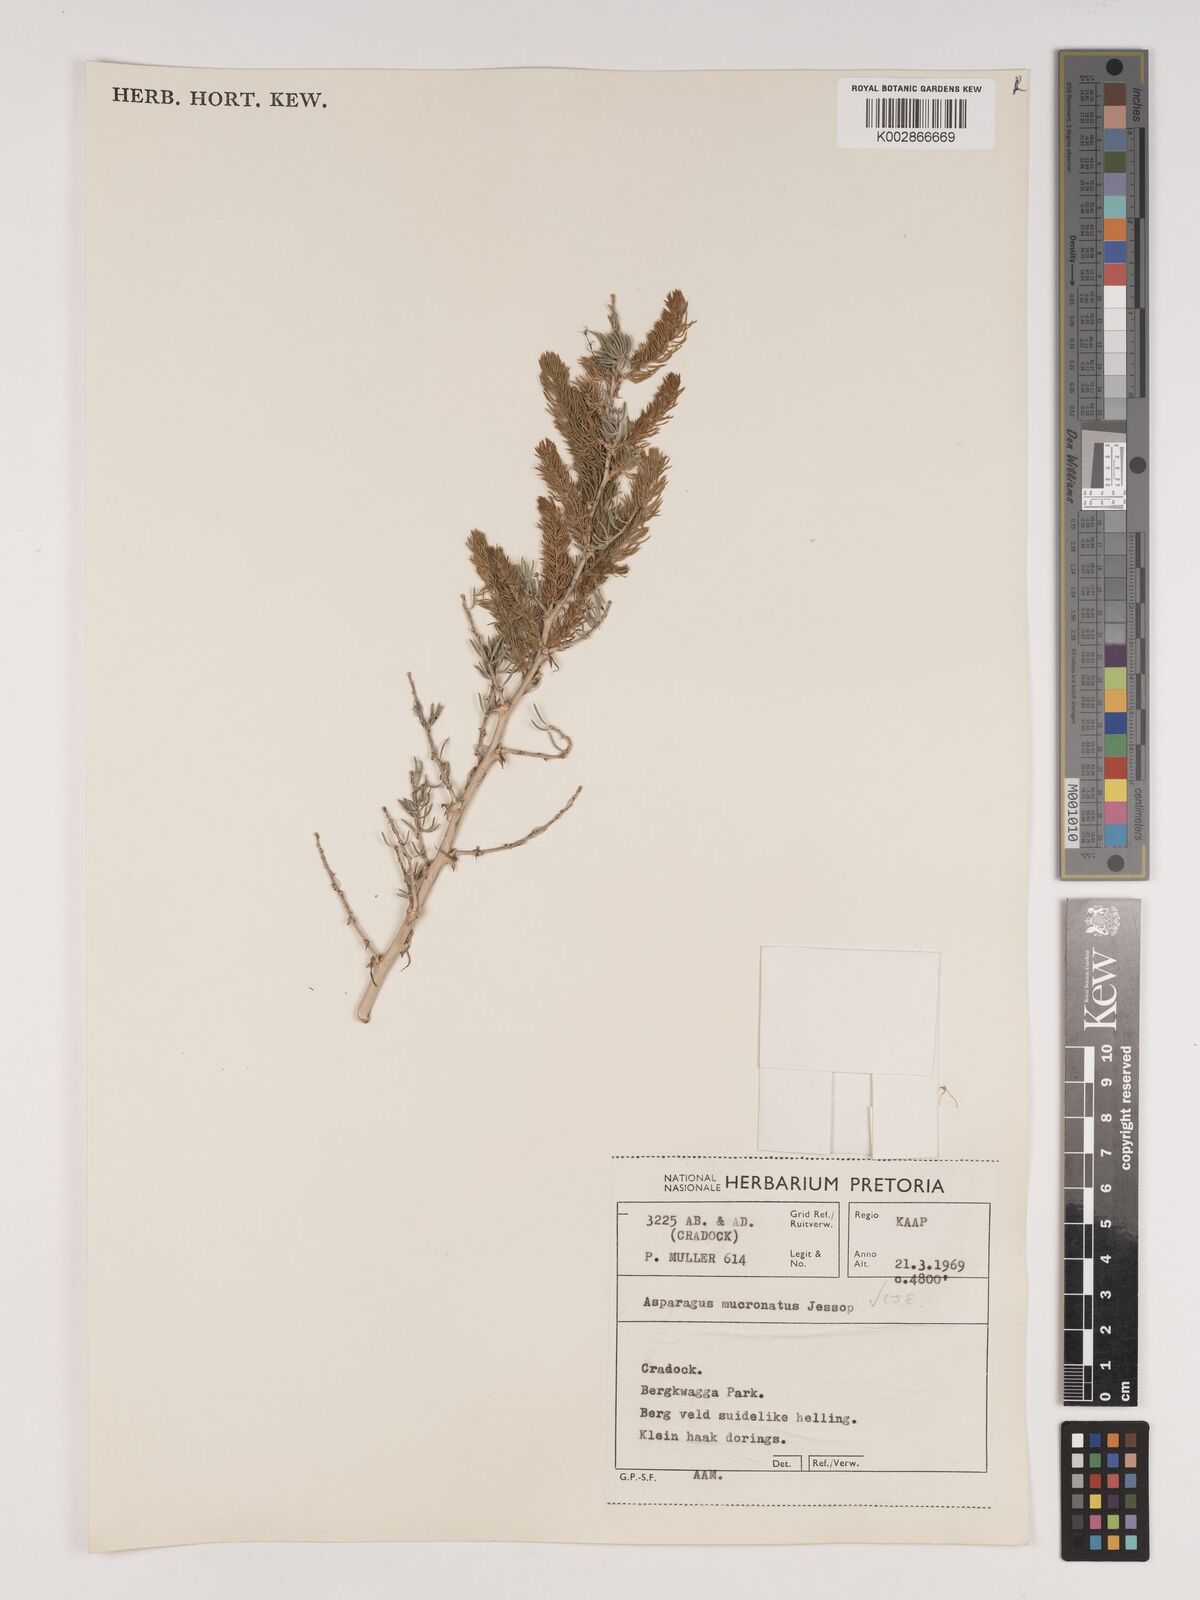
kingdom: Plantae
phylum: Tracheophyta
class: Liliopsida
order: Asparagales
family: Asparagaceae
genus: Asparagus
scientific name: Asparagus mucronatus
